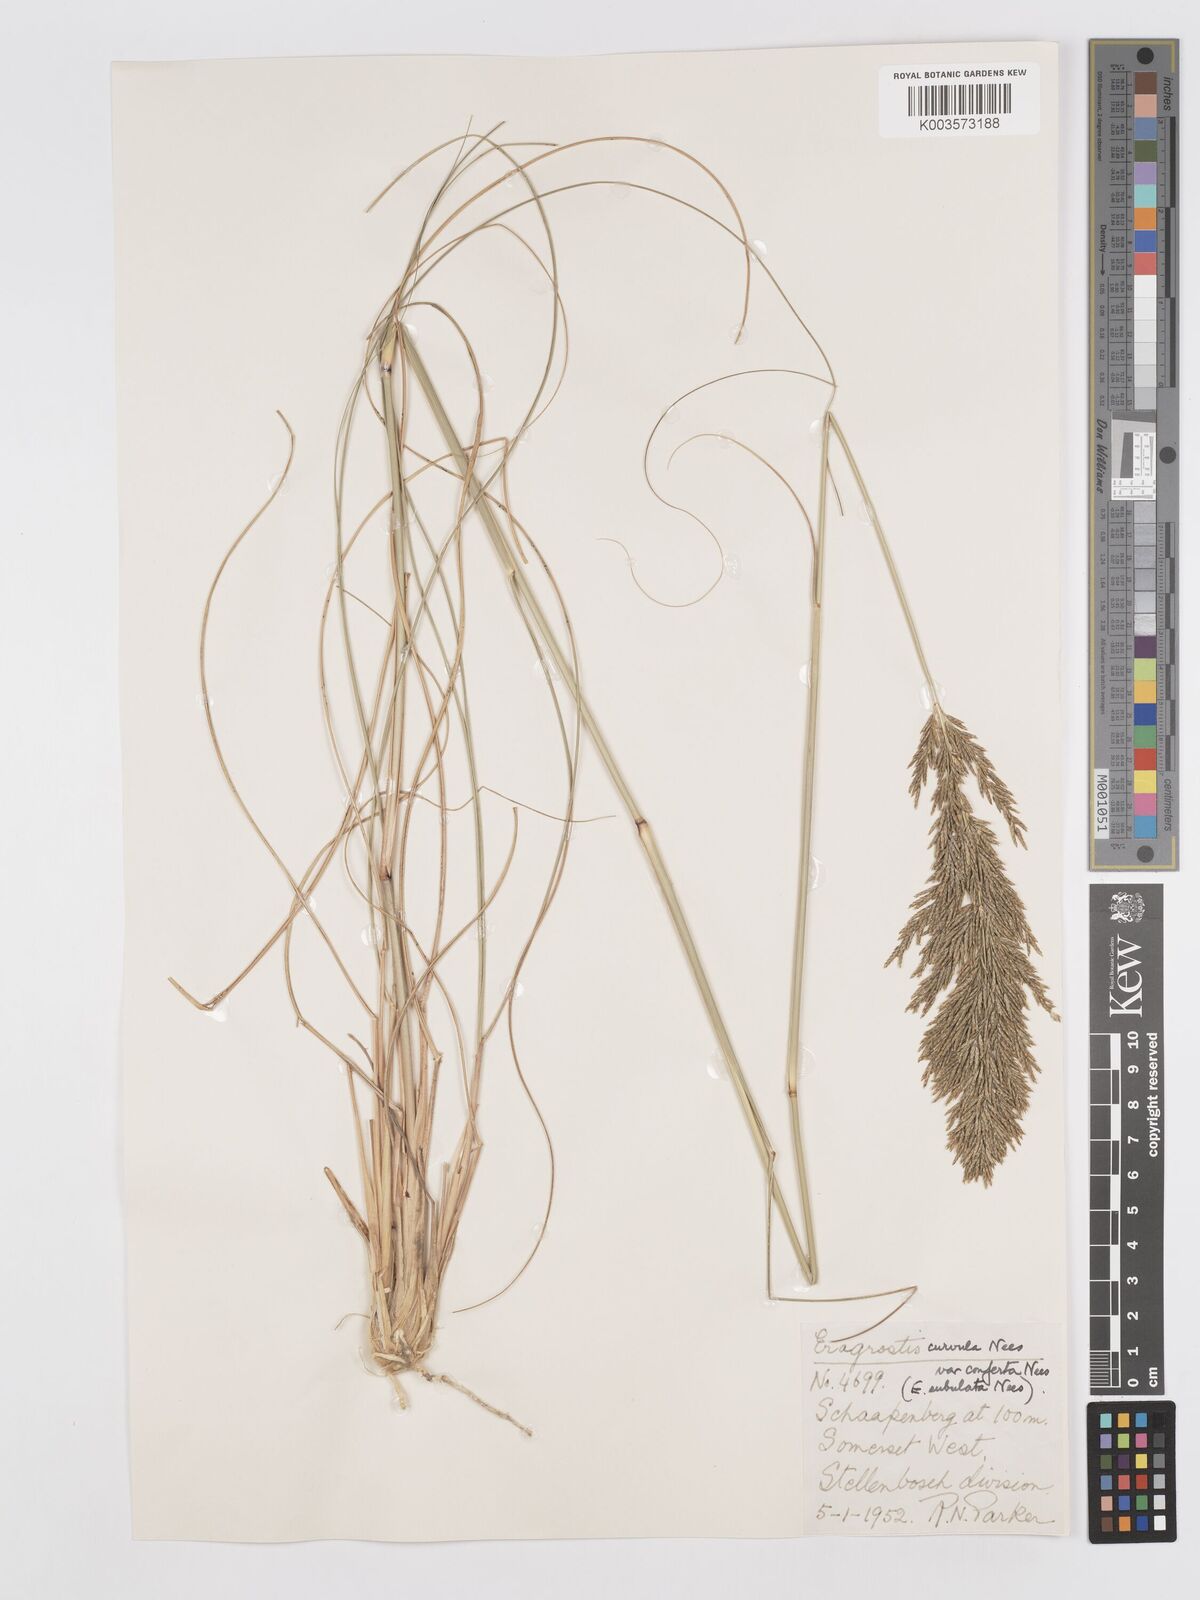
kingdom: Plantae
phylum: Tracheophyta
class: Liliopsida
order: Poales
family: Poaceae
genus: Eragrostis
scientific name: Eragrostis curvula
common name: African love-grass
